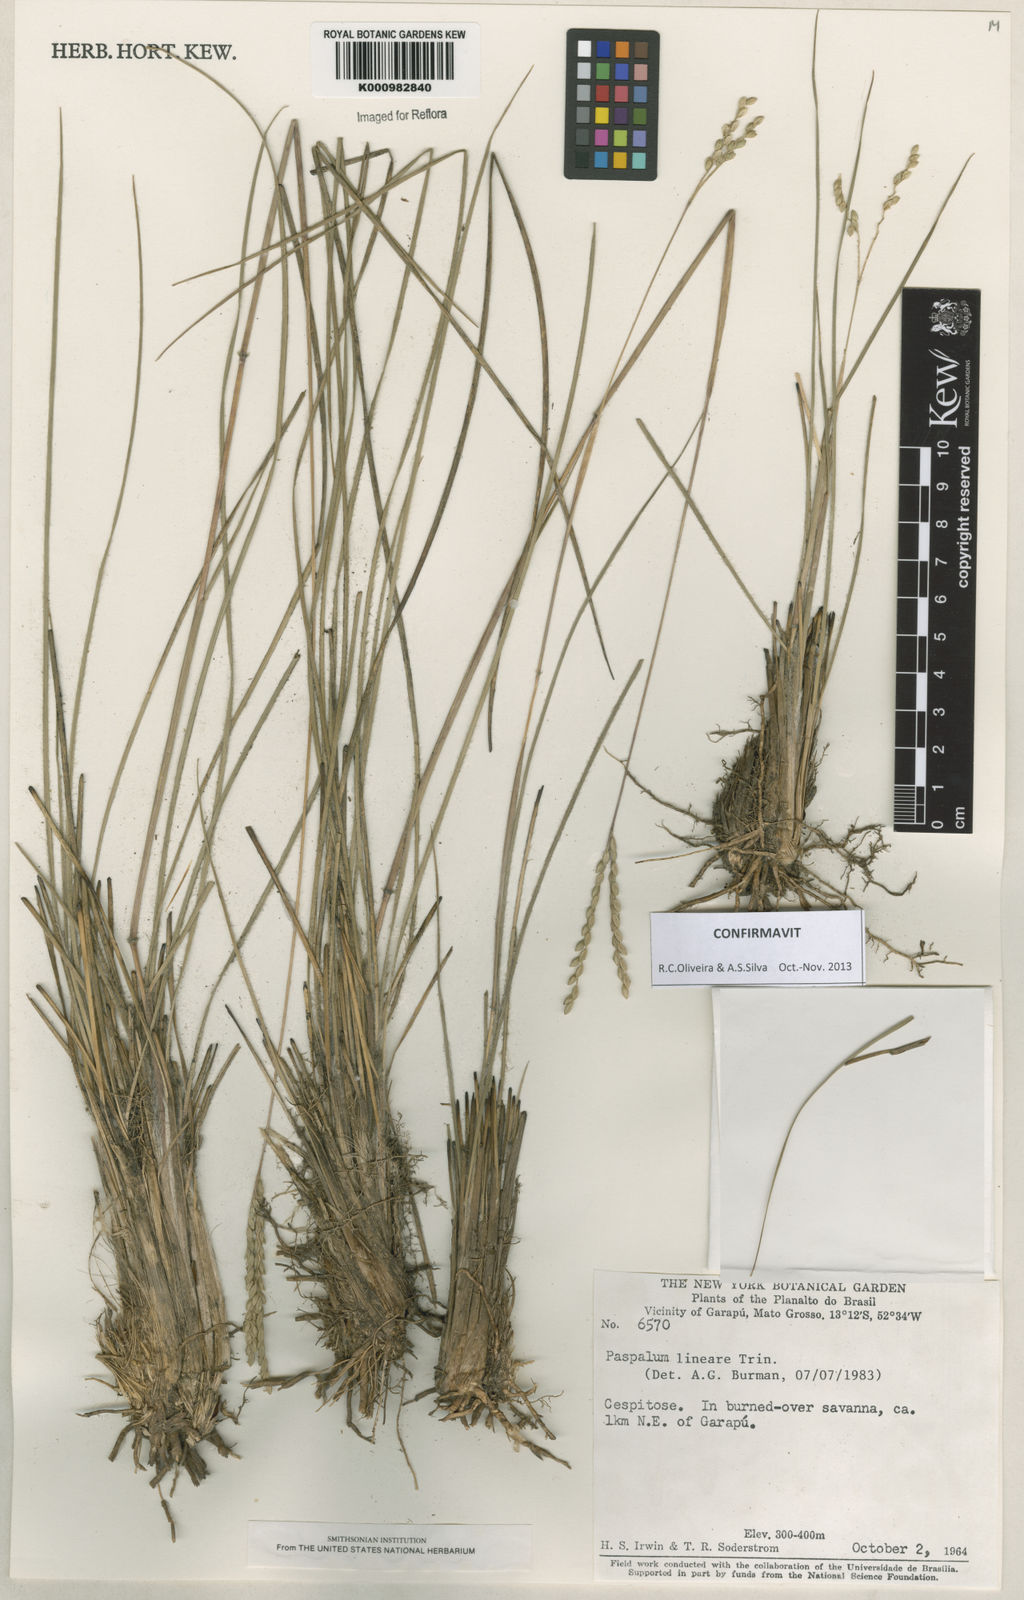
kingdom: Plantae
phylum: Tracheophyta
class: Liliopsida
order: Poales
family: Poaceae
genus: Paspalum
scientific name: Paspalum lineare
